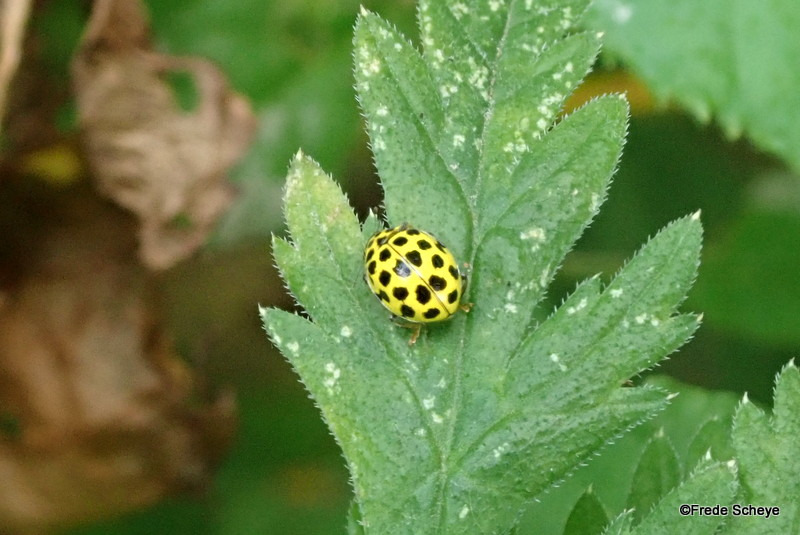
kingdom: Animalia
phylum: Arthropoda
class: Insecta
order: Coleoptera
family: Coccinellidae
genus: Psyllobora
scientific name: Psyllobora vigintiduopunctata
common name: Toogtyveplettet mariehøne
